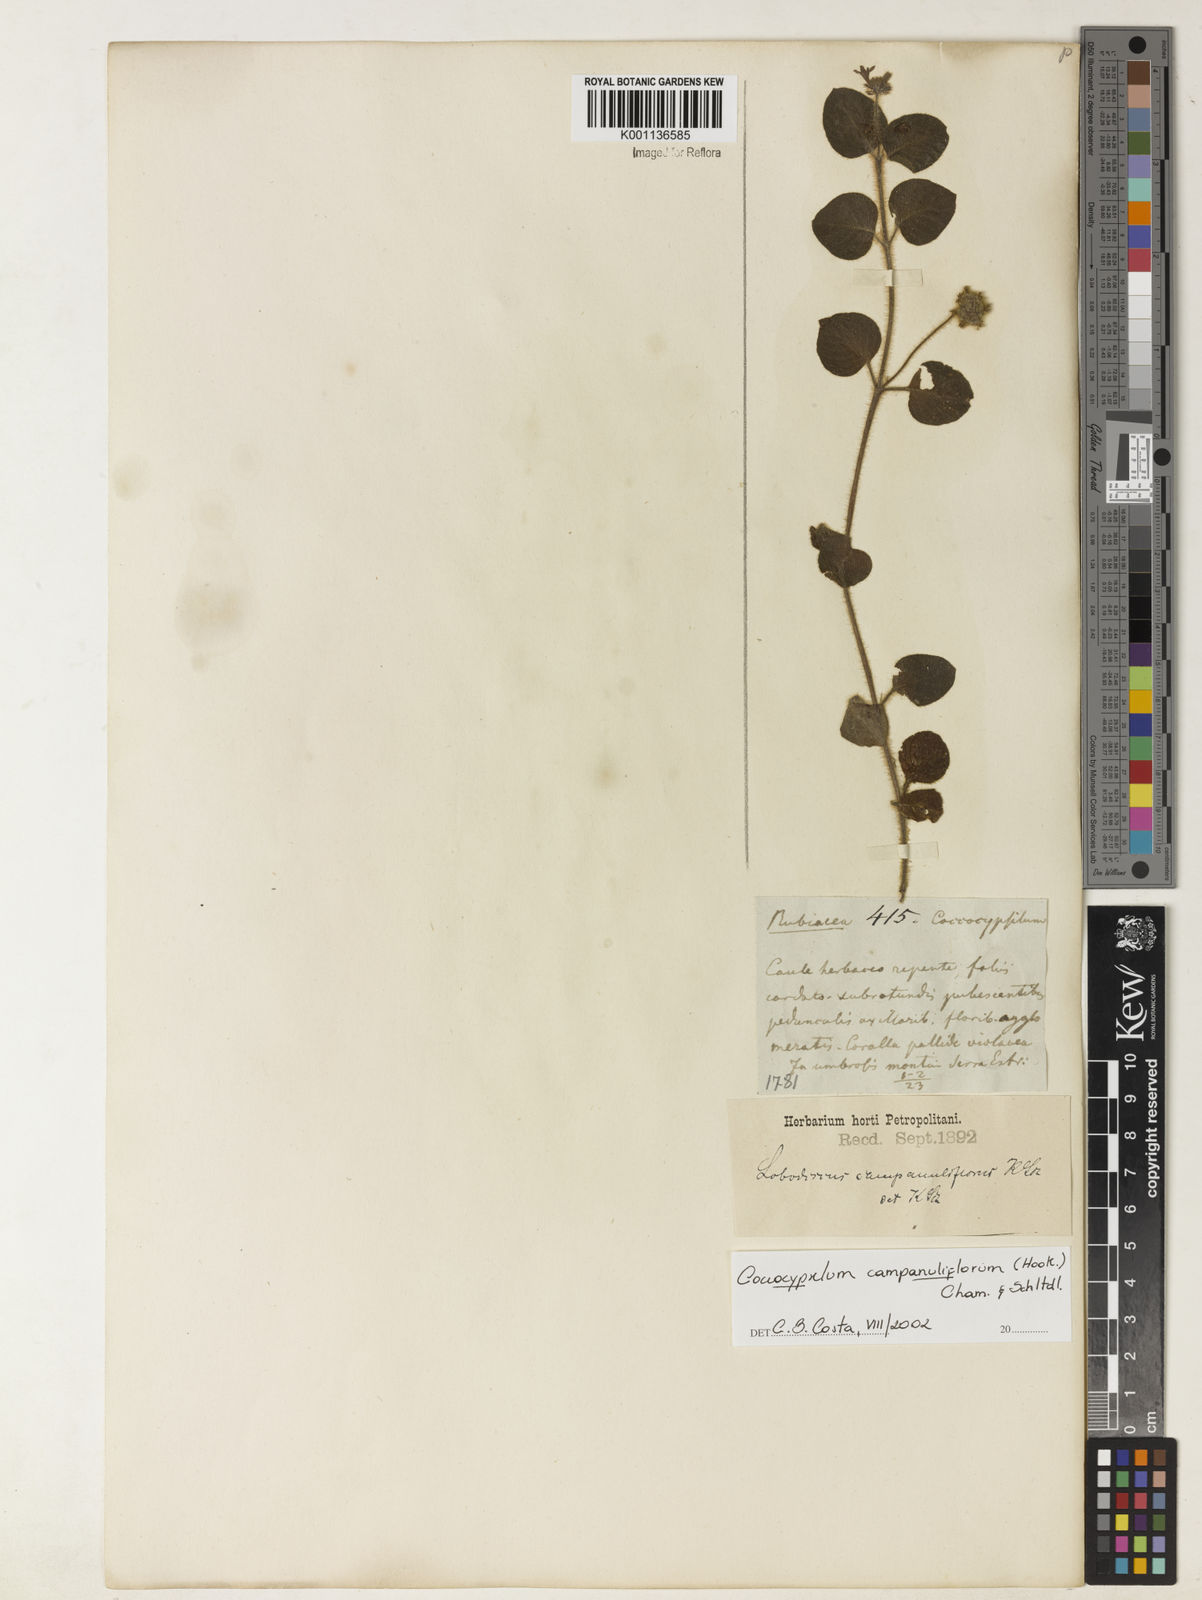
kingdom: Plantae
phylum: Tracheophyta
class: Magnoliopsida
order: Gentianales
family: Rubiaceae
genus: Coccocypselum
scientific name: Coccocypselum capitatum
